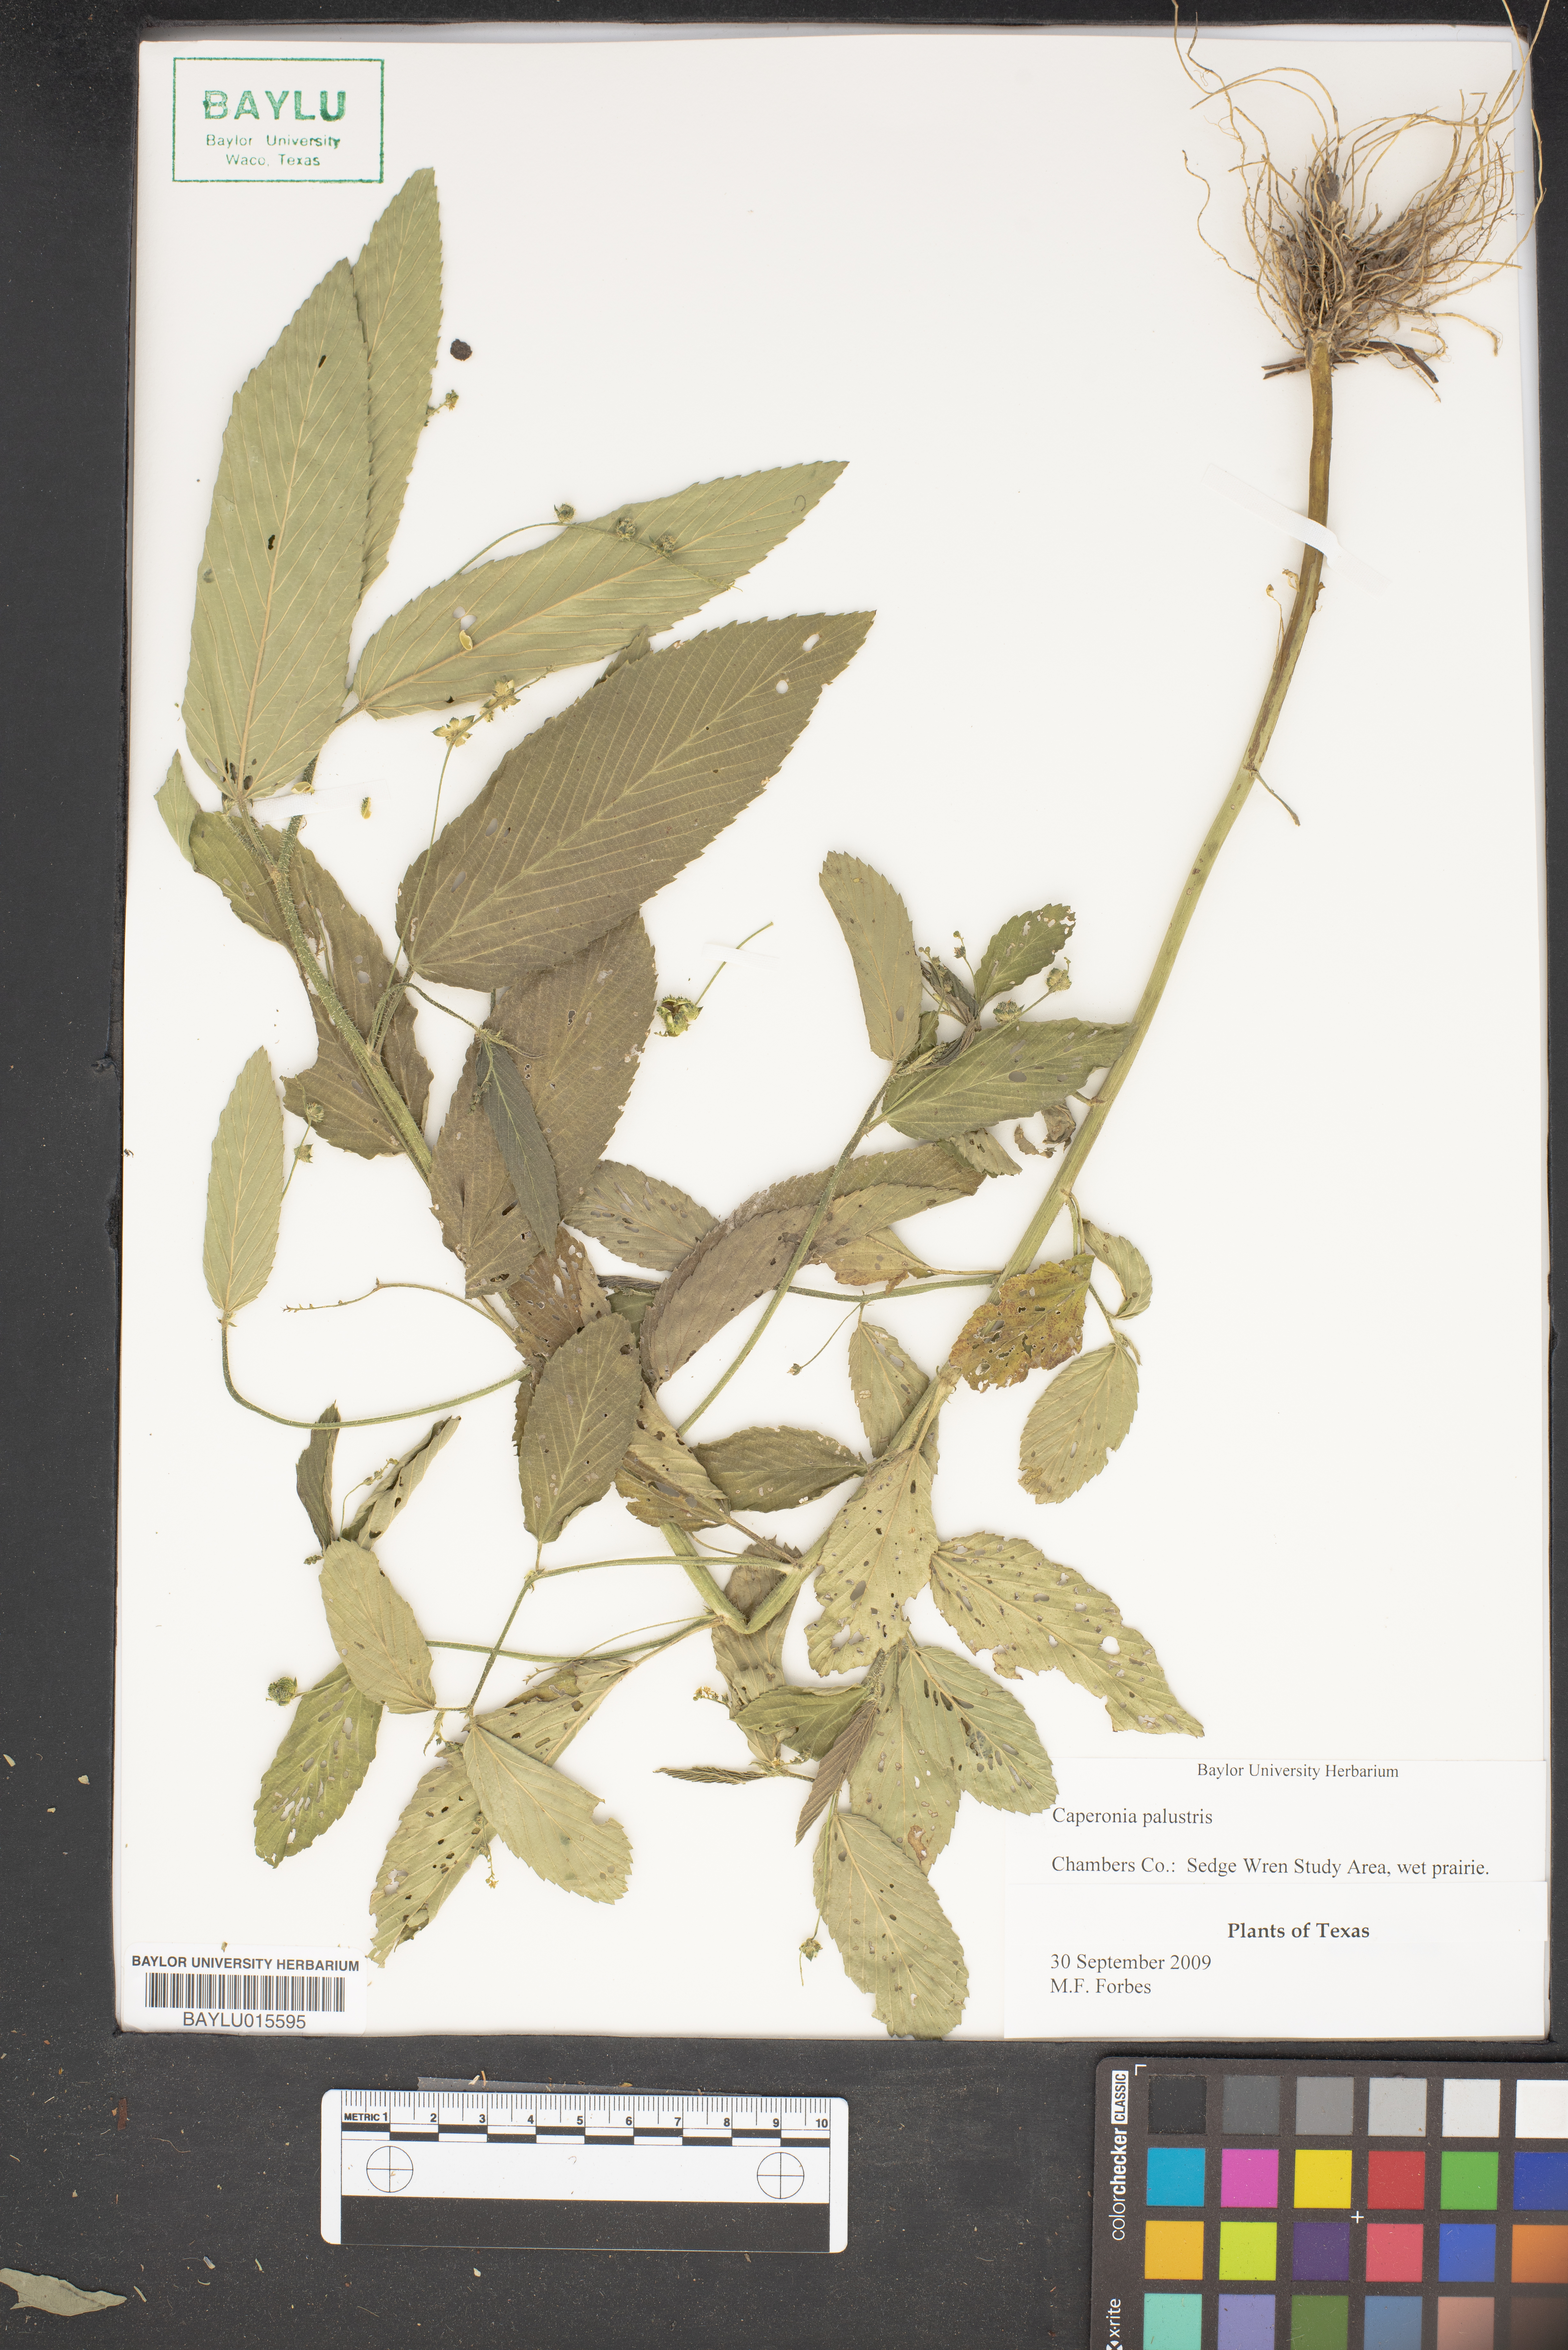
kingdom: Plantae
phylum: Tracheophyta
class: Magnoliopsida
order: Malpighiales
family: Euphorbiaceae
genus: Caperonia
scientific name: Caperonia palustris
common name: Sacatrapo
